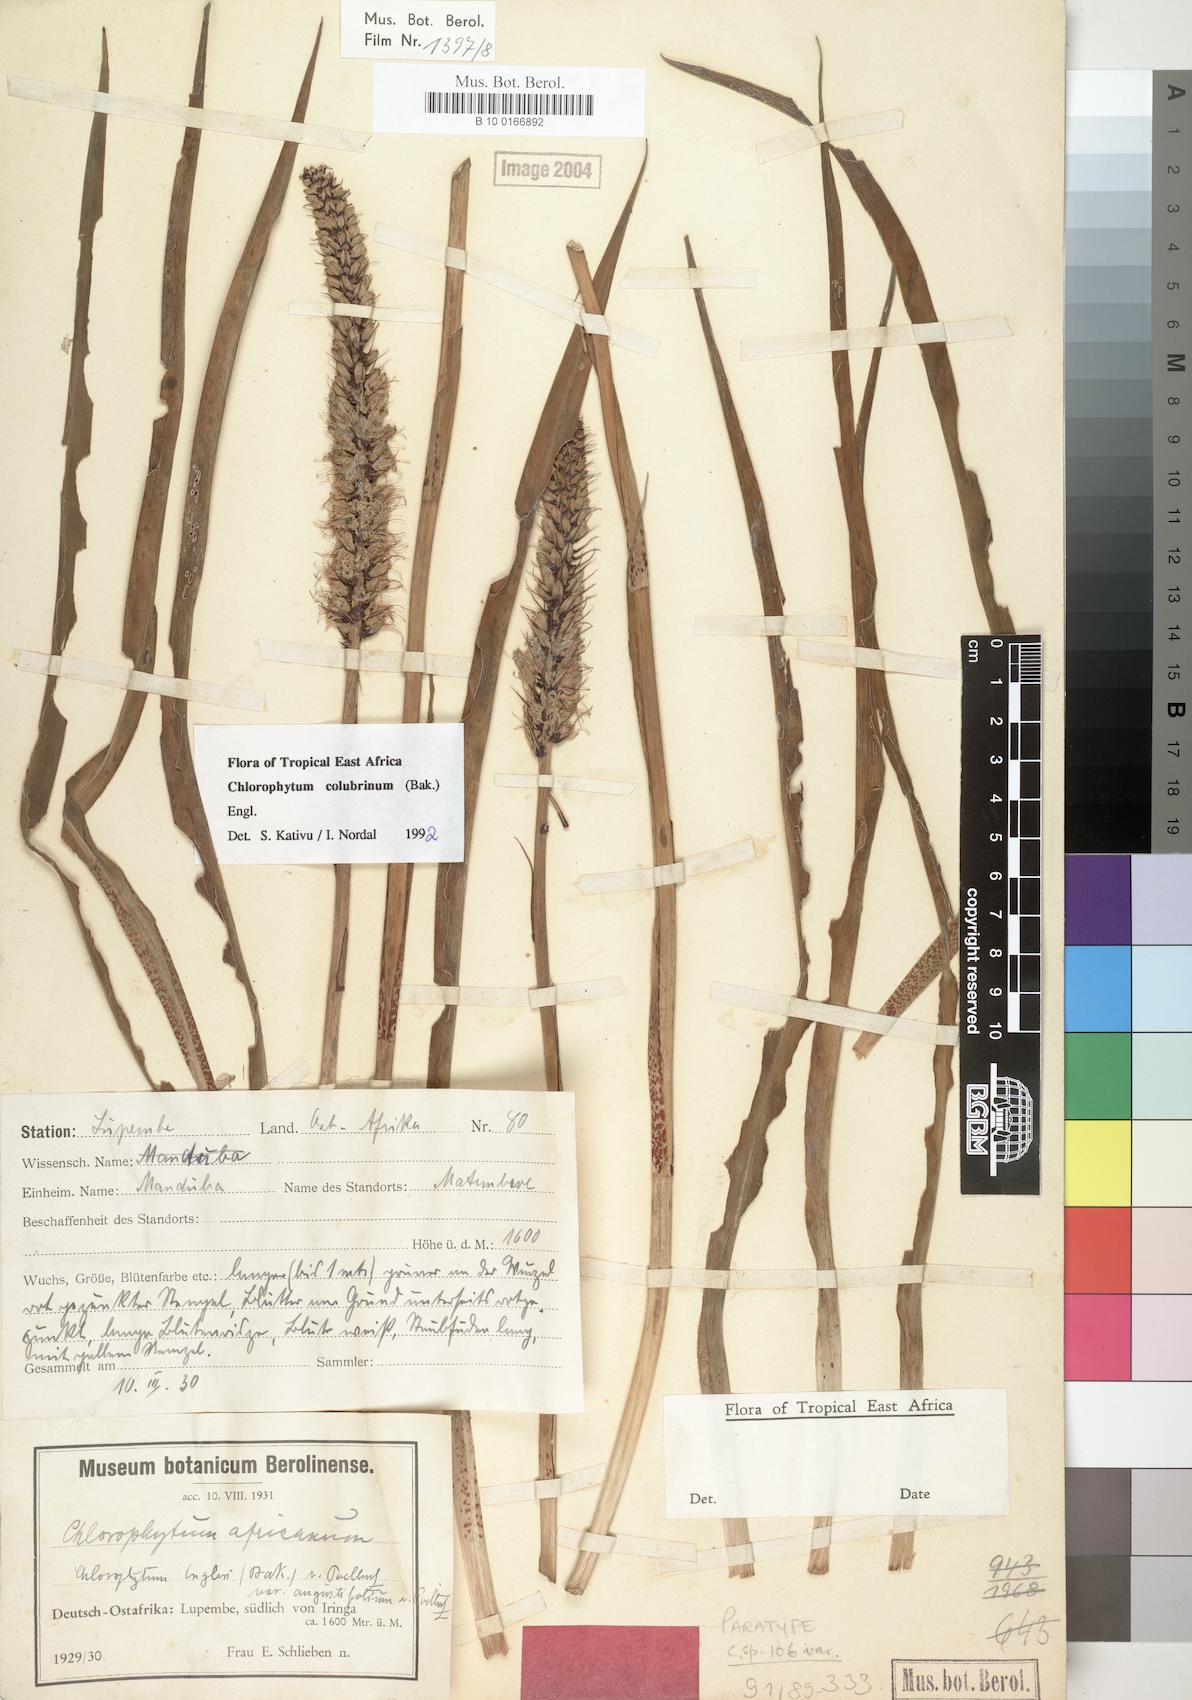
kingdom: Plantae
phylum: Tracheophyta
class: Liliopsida
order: Asparagales
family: Asparagaceae
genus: Chlorophytum
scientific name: Chlorophytum colubrinum
